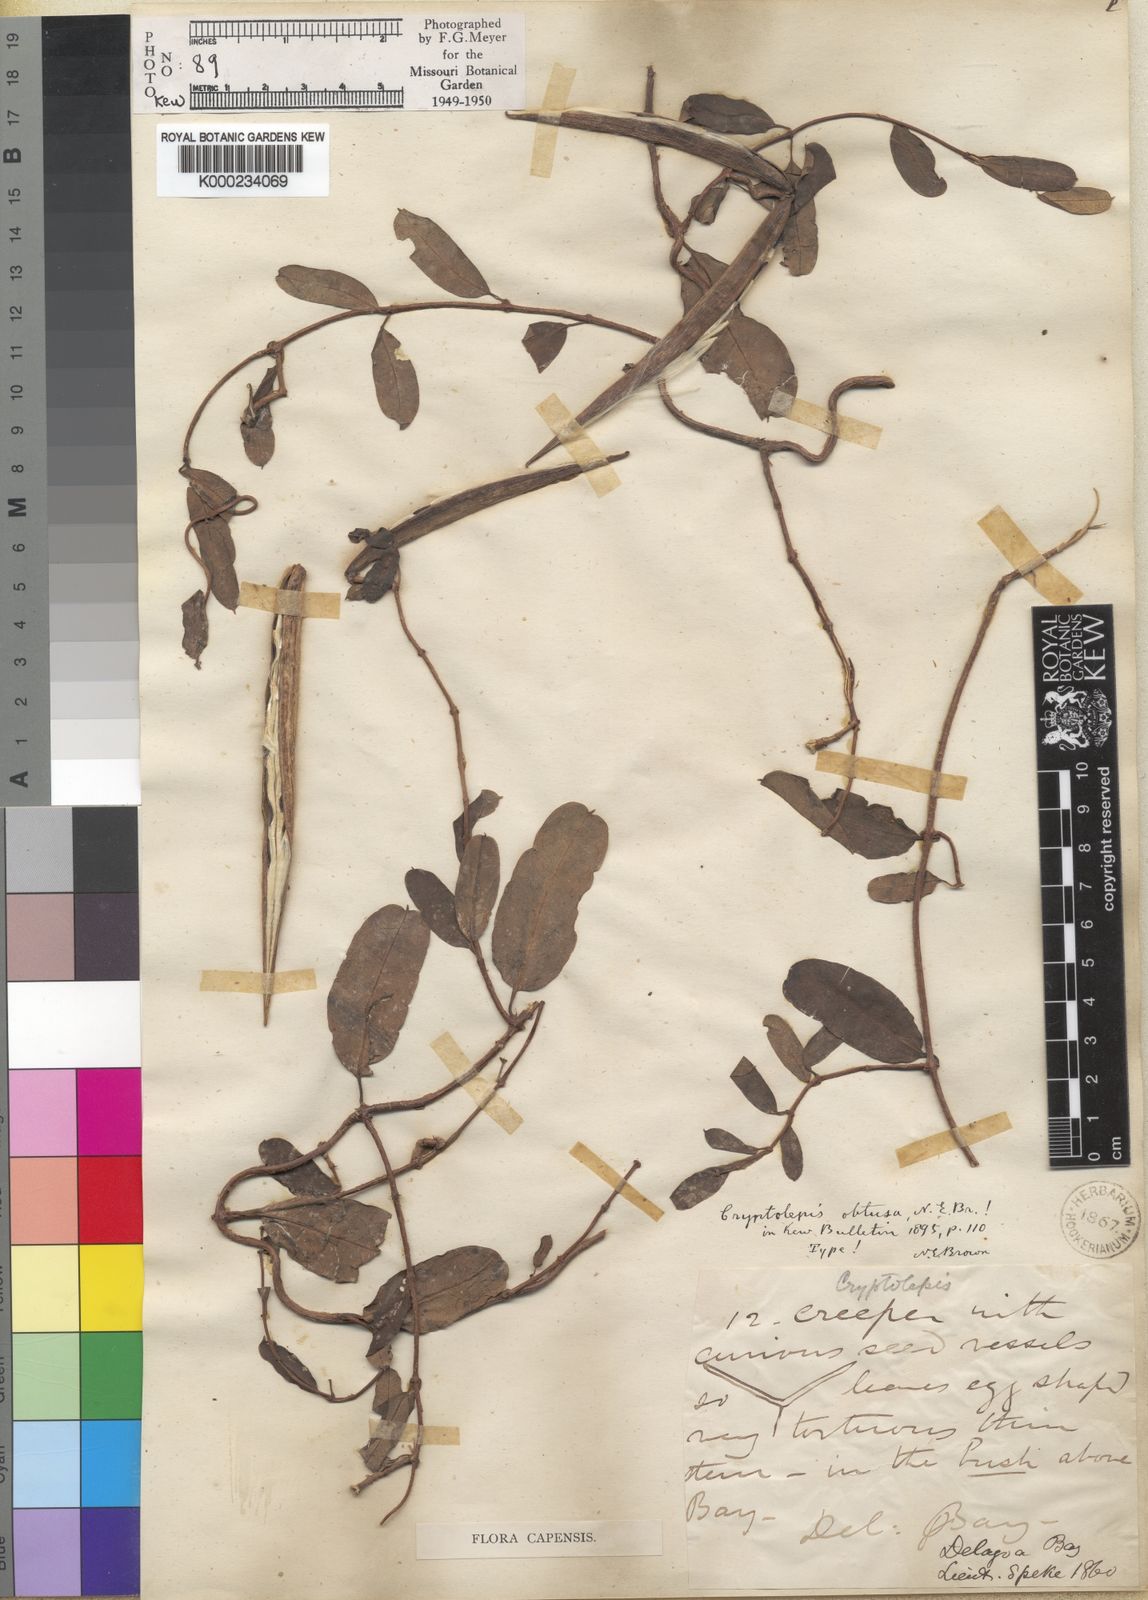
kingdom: Plantae
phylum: Tracheophyta
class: Magnoliopsida
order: Gentianales
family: Apocynaceae
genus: Cryptolepis
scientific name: Cryptolepis obtusa
